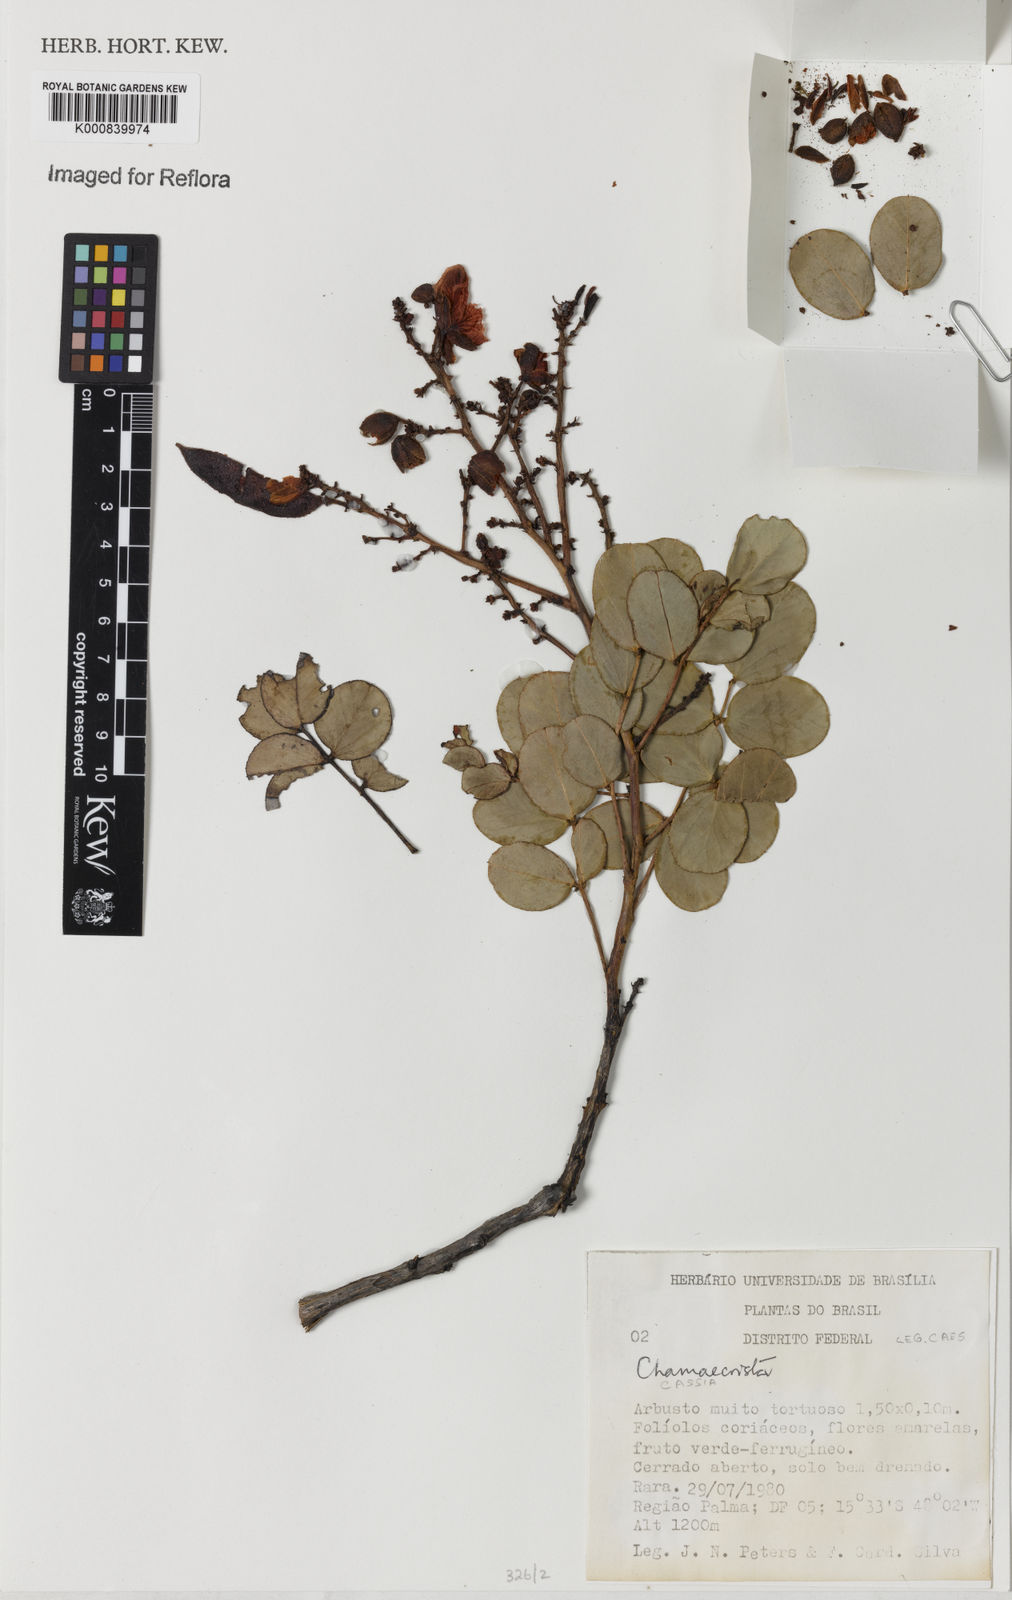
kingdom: Plantae
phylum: Tracheophyta
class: Magnoliopsida
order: Fabales
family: Fabaceae
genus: Chamaecrista
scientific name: Chamaecrista
